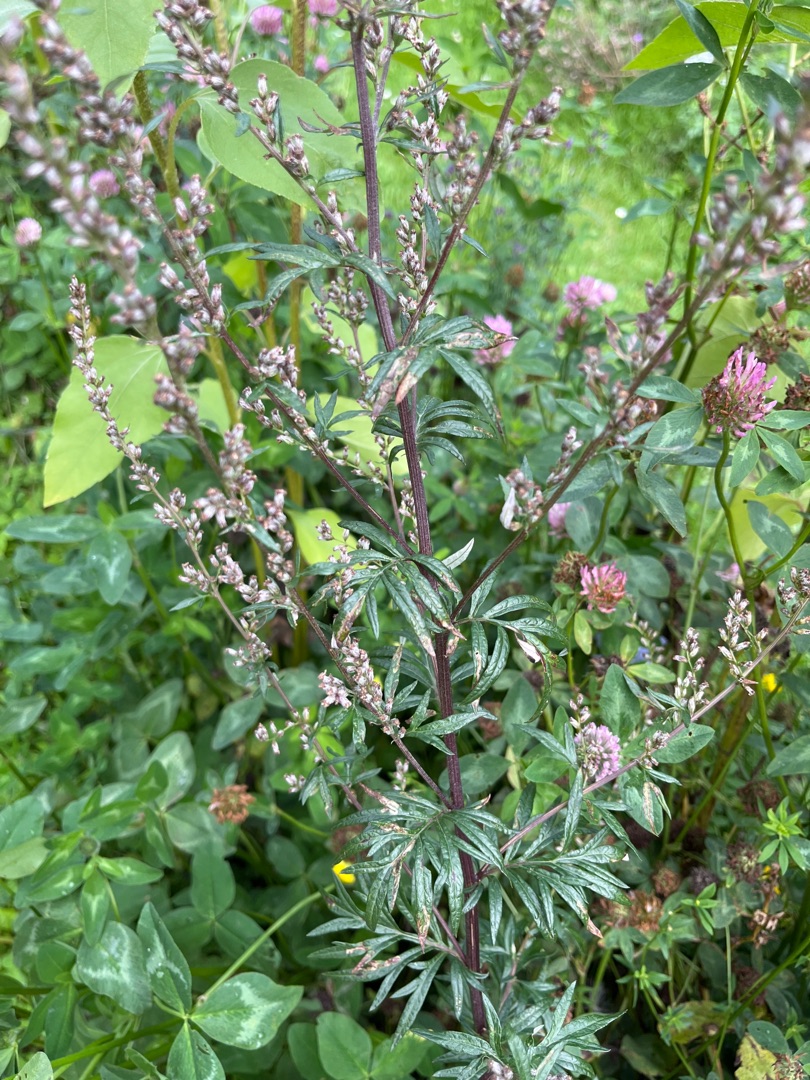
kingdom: Plantae
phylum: Tracheophyta
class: Magnoliopsida
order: Asterales
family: Asteraceae
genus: Artemisia
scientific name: Artemisia vulgaris
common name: Grå-bynke
